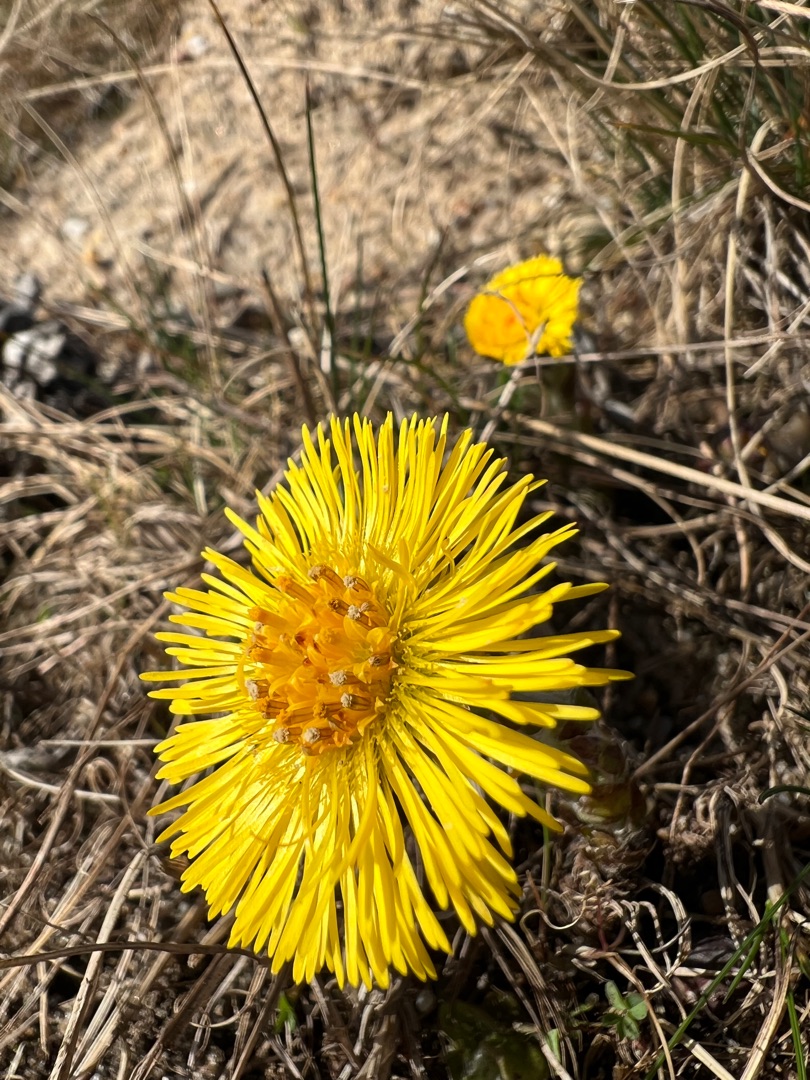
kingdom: Plantae
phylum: Tracheophyta
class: Magnoliopsida
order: Asterales
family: Asteraceae
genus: Tussilago
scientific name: Tussilago farfara
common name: Følfod
